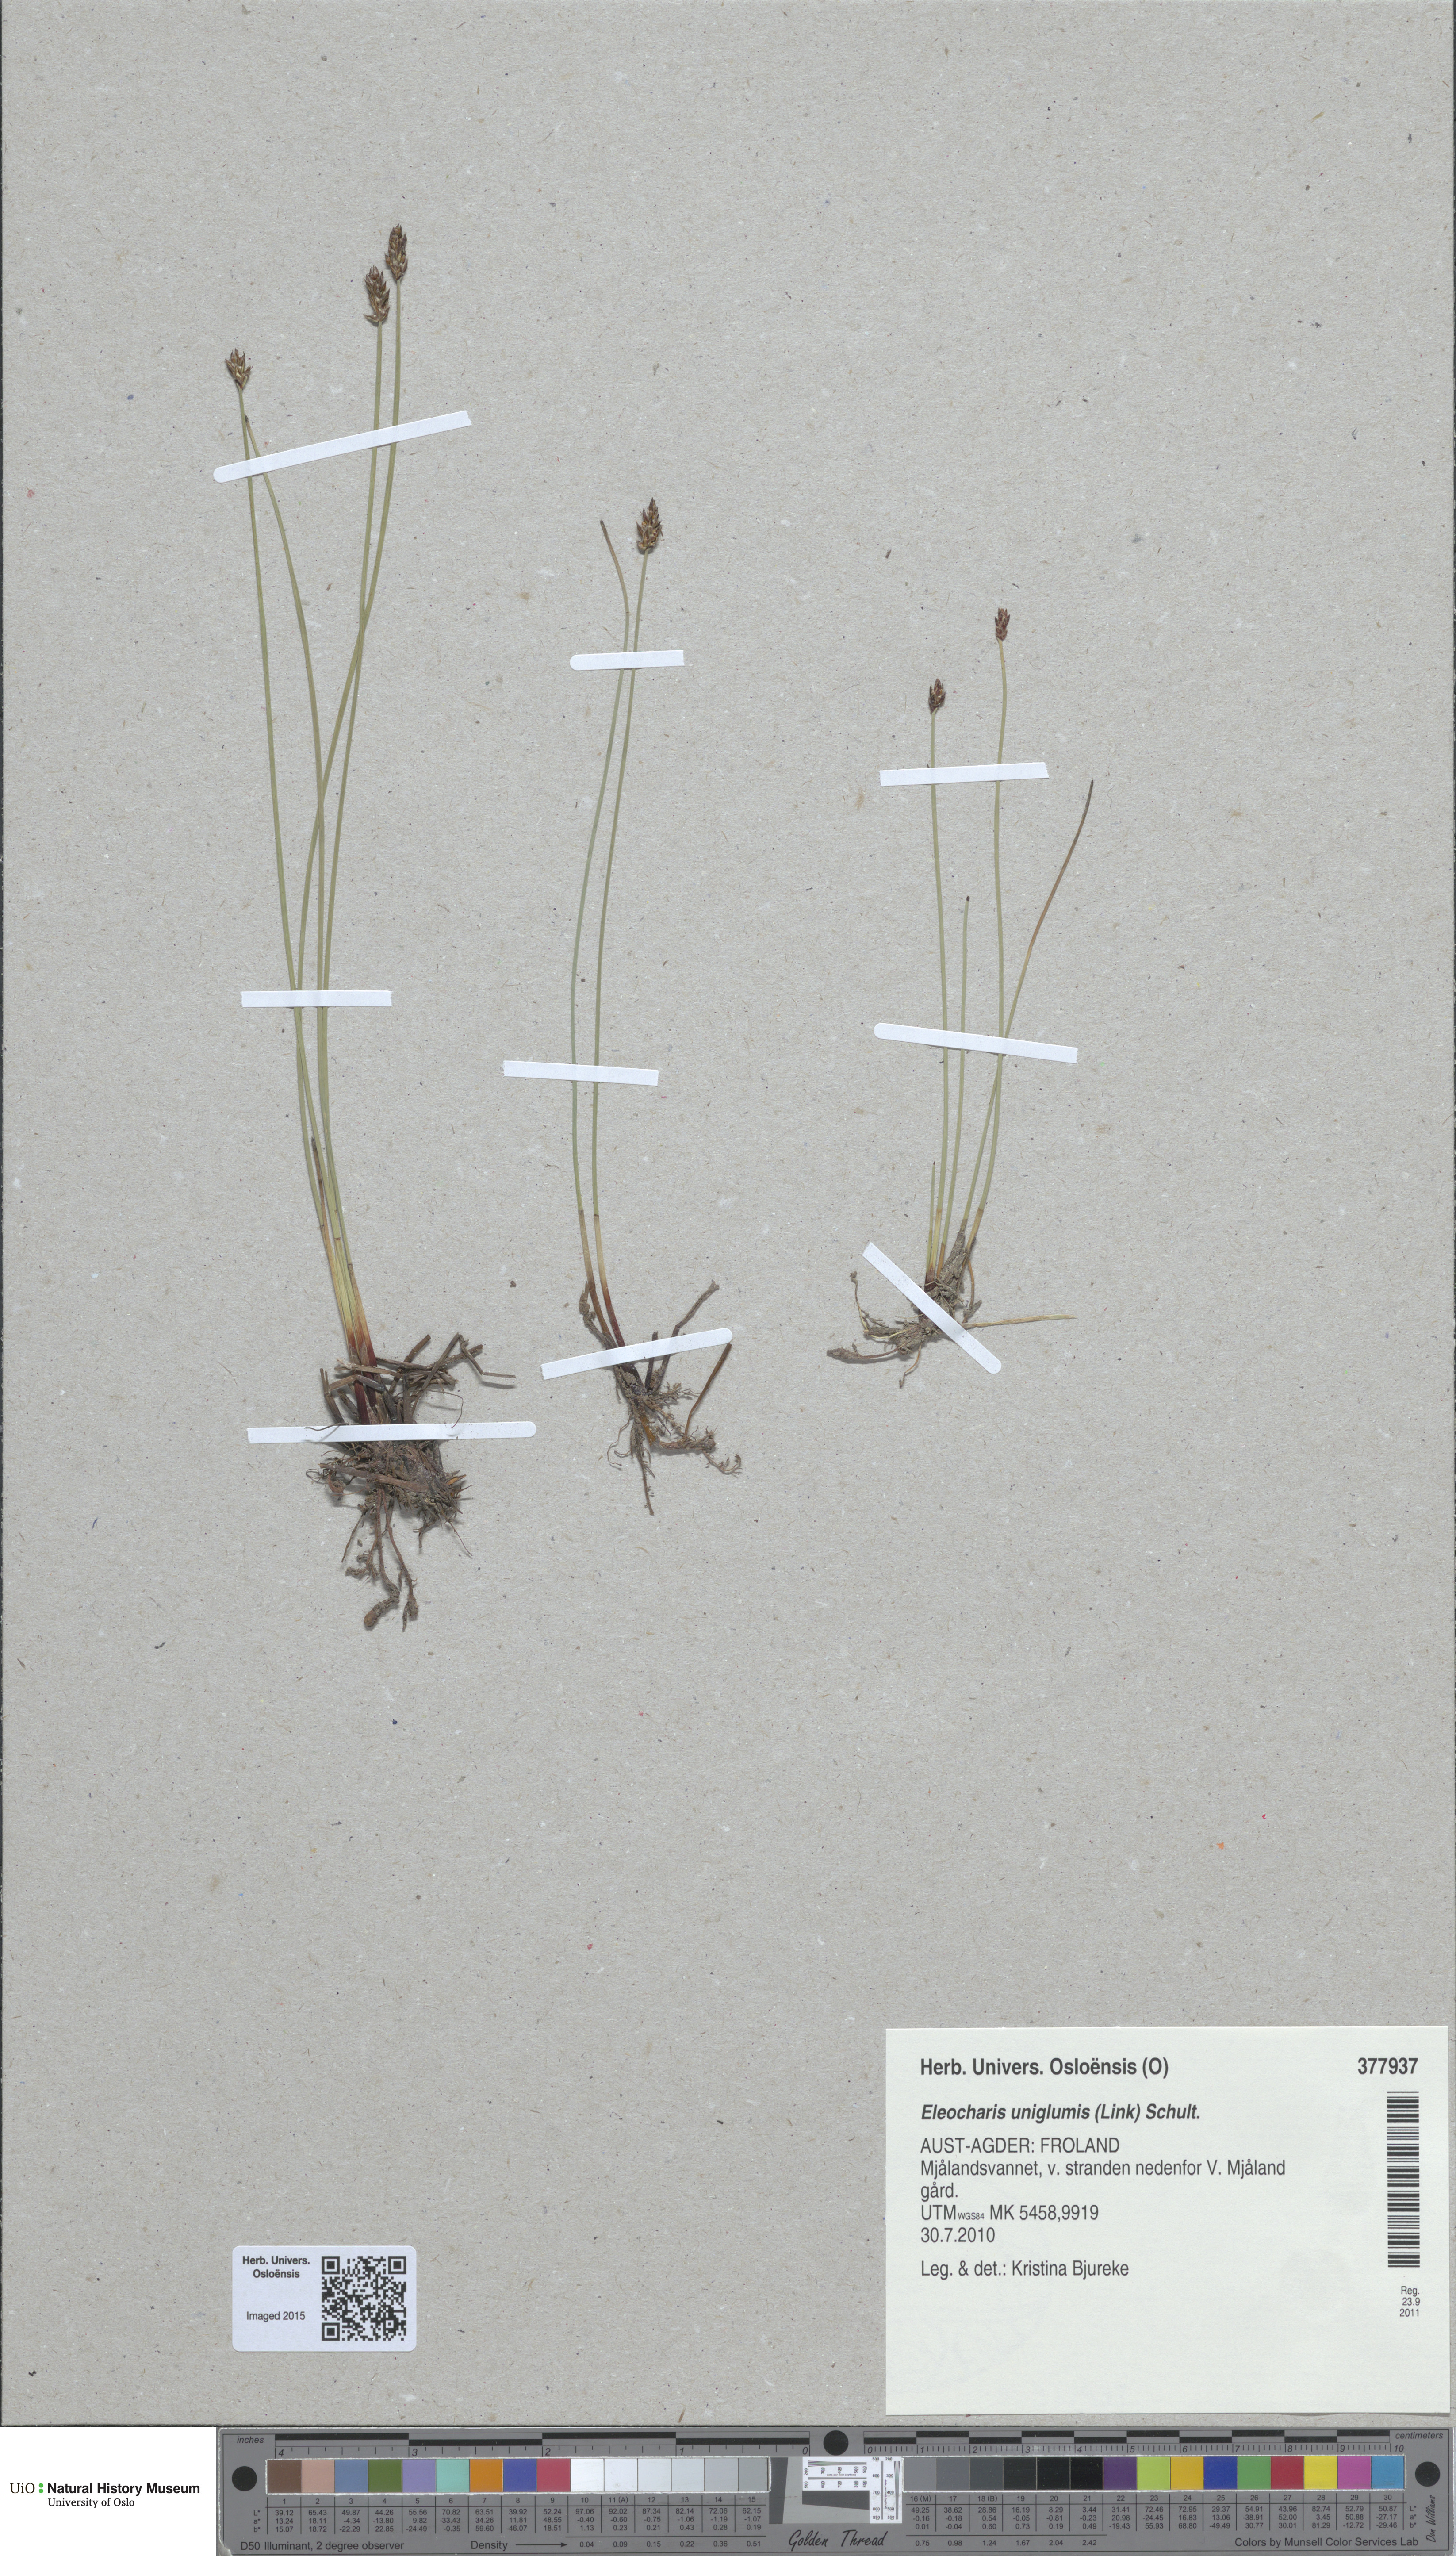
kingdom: Plantae
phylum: Tracheophyta
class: Liliopsida
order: Poales
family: Cyperaceae
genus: Eleocharis
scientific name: Eleocharis uniglumis
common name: Slender spike-rush
